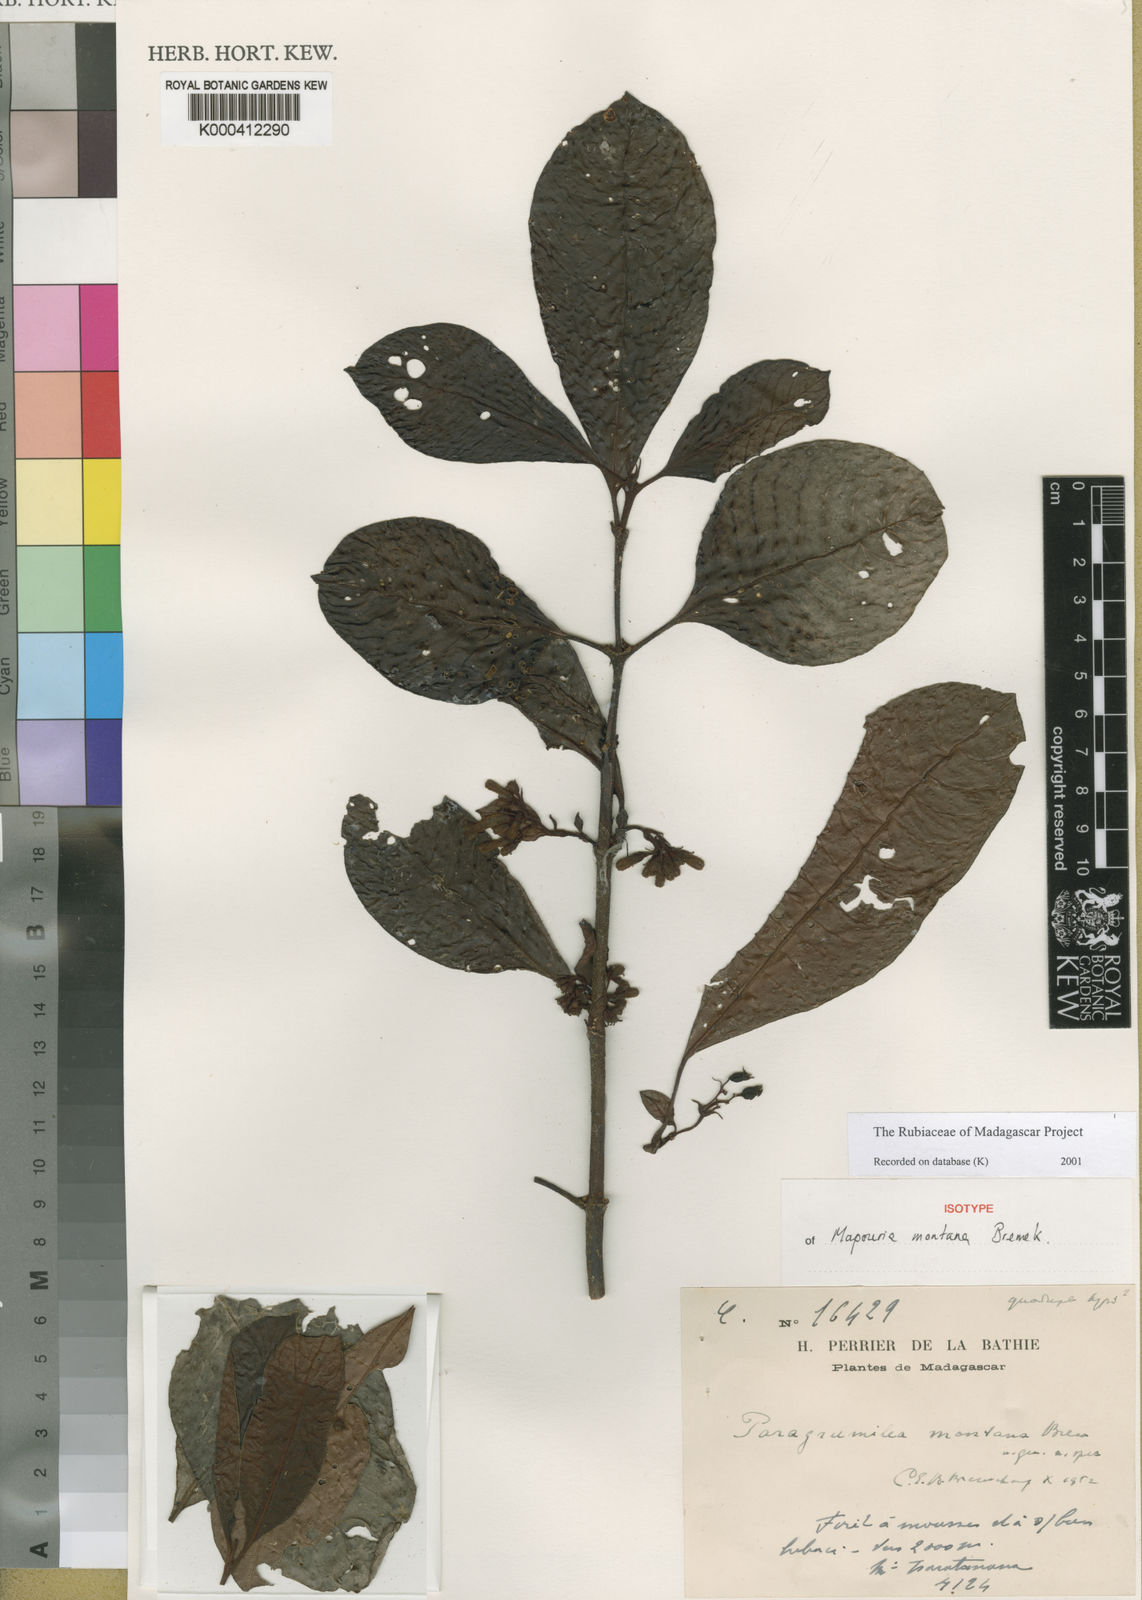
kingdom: Plantae
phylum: Tracheophyta
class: Magnoliopsida
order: Gentianales
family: Rubiaceae
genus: Eumachia
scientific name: Eumachia montana
